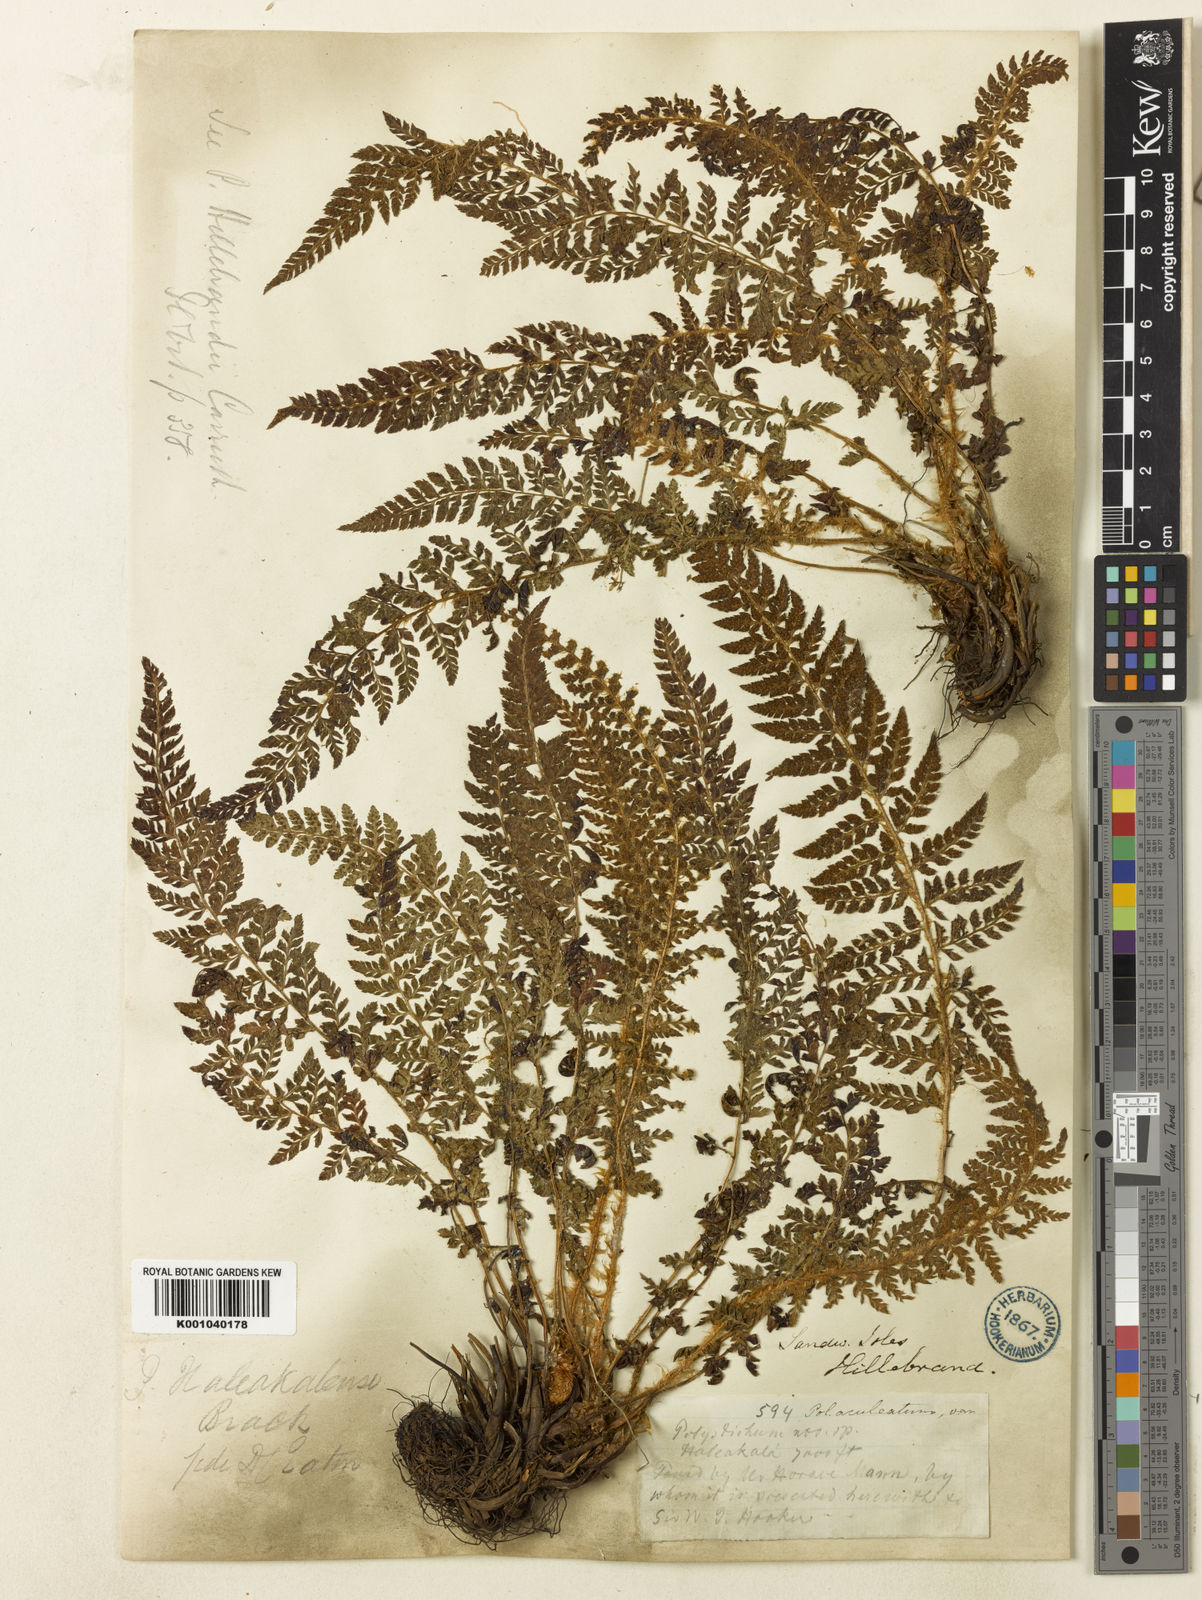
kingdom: Plantae
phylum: Tracheophyta
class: Polypodiopsida
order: Polypodiales
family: Dryopteridaceae
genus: Polystichum
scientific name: Polystichum haleakalense
